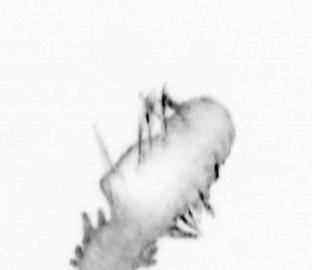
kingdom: Animalia
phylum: Annelida
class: Polychaeta
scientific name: Polychaeta
